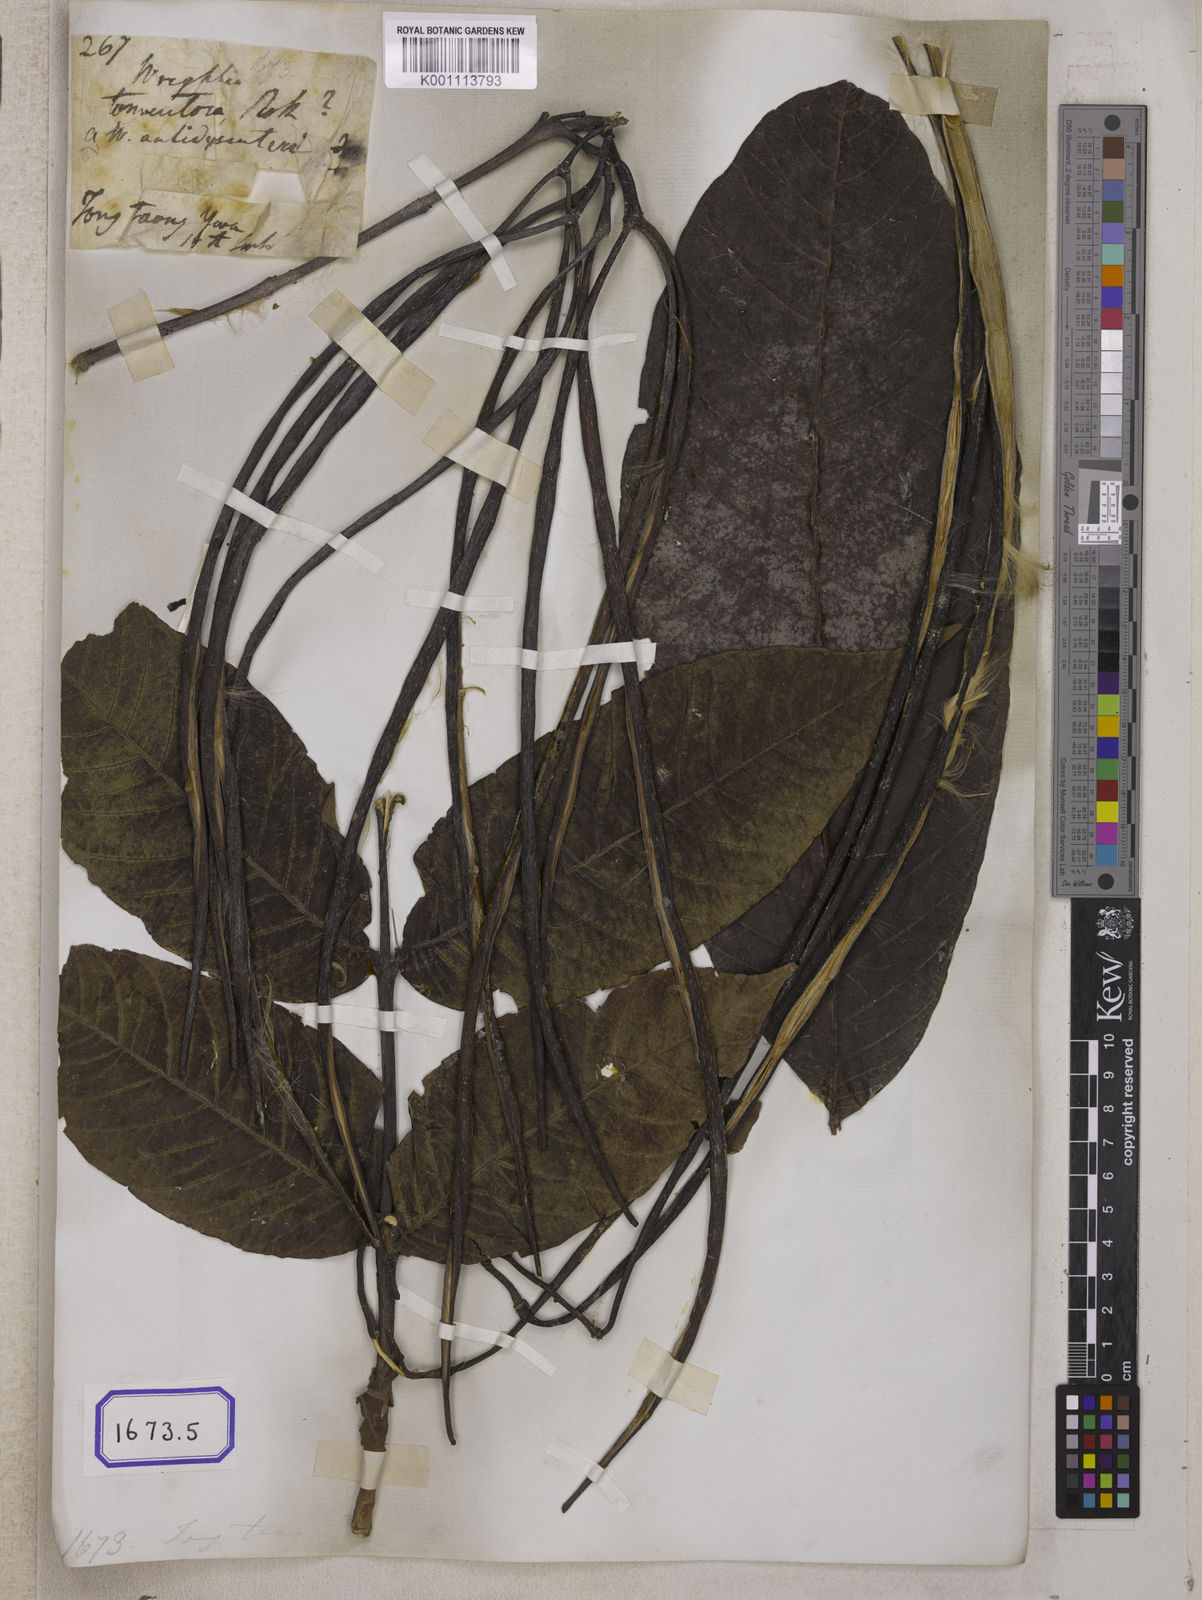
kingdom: Plantae
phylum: Tracheophyta
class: Magnoliopsida
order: Gentianales
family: Apocynaceae
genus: Holarrhena
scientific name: Holarrhena
